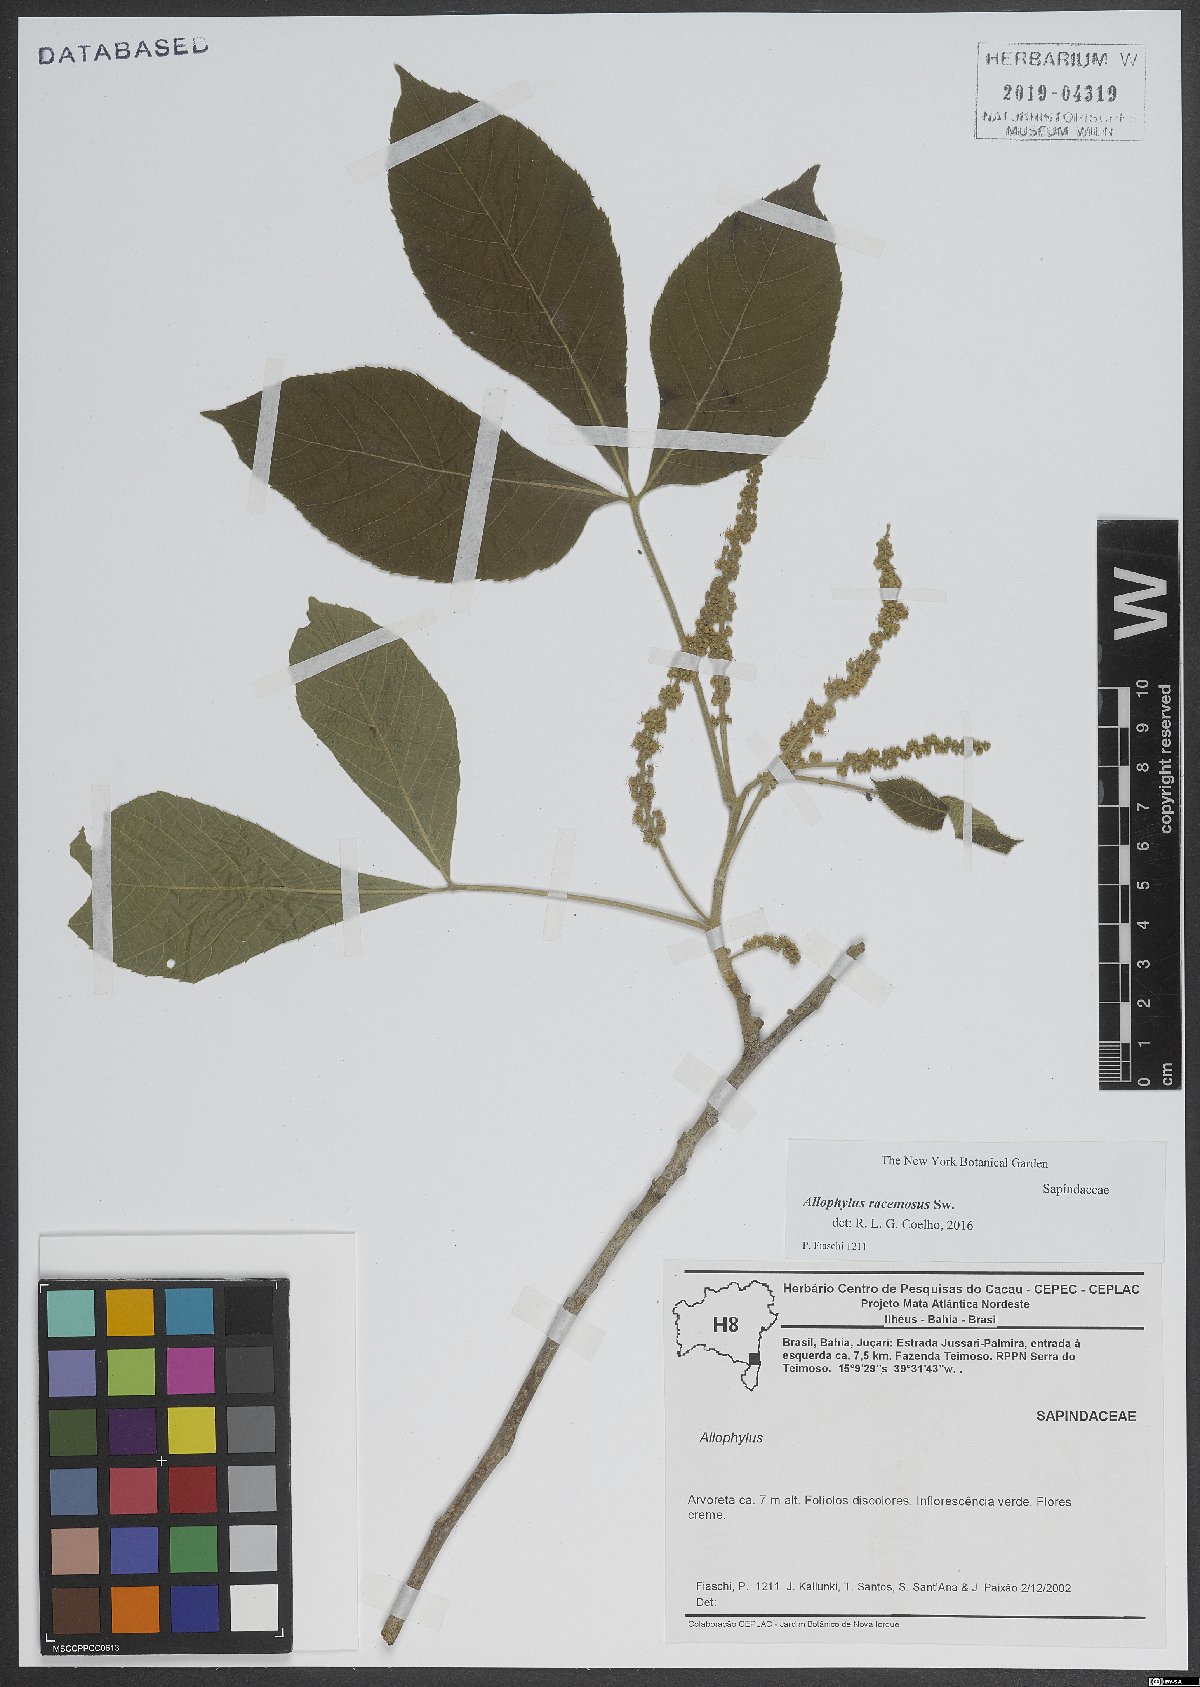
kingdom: Plantae
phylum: Tracheophyta
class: Magnoliopsida
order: Sapindales
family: Sapindaceae
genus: Allophylus
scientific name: Allophylus racemosus
